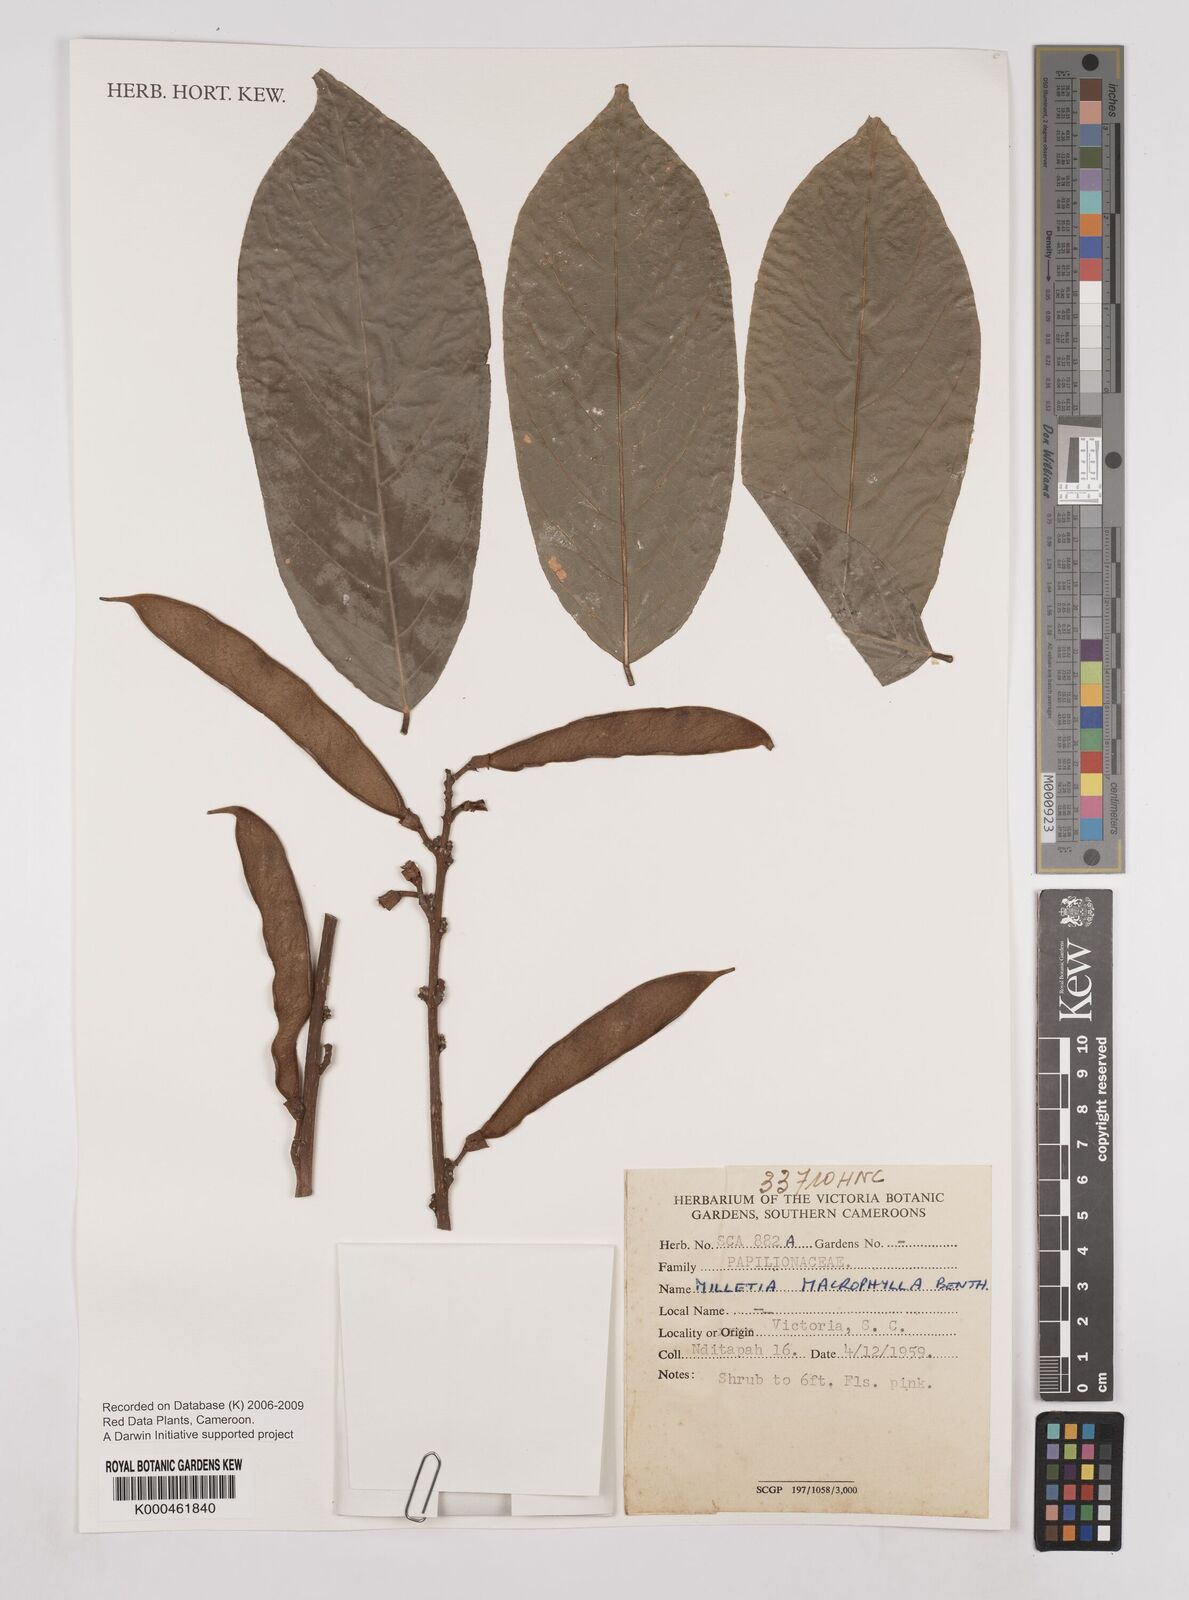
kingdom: Plantae
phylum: Tracheophyta
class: Magnoliopsida
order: Fabales
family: Fabaceae
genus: Millettia
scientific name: Millettia macrophylla
